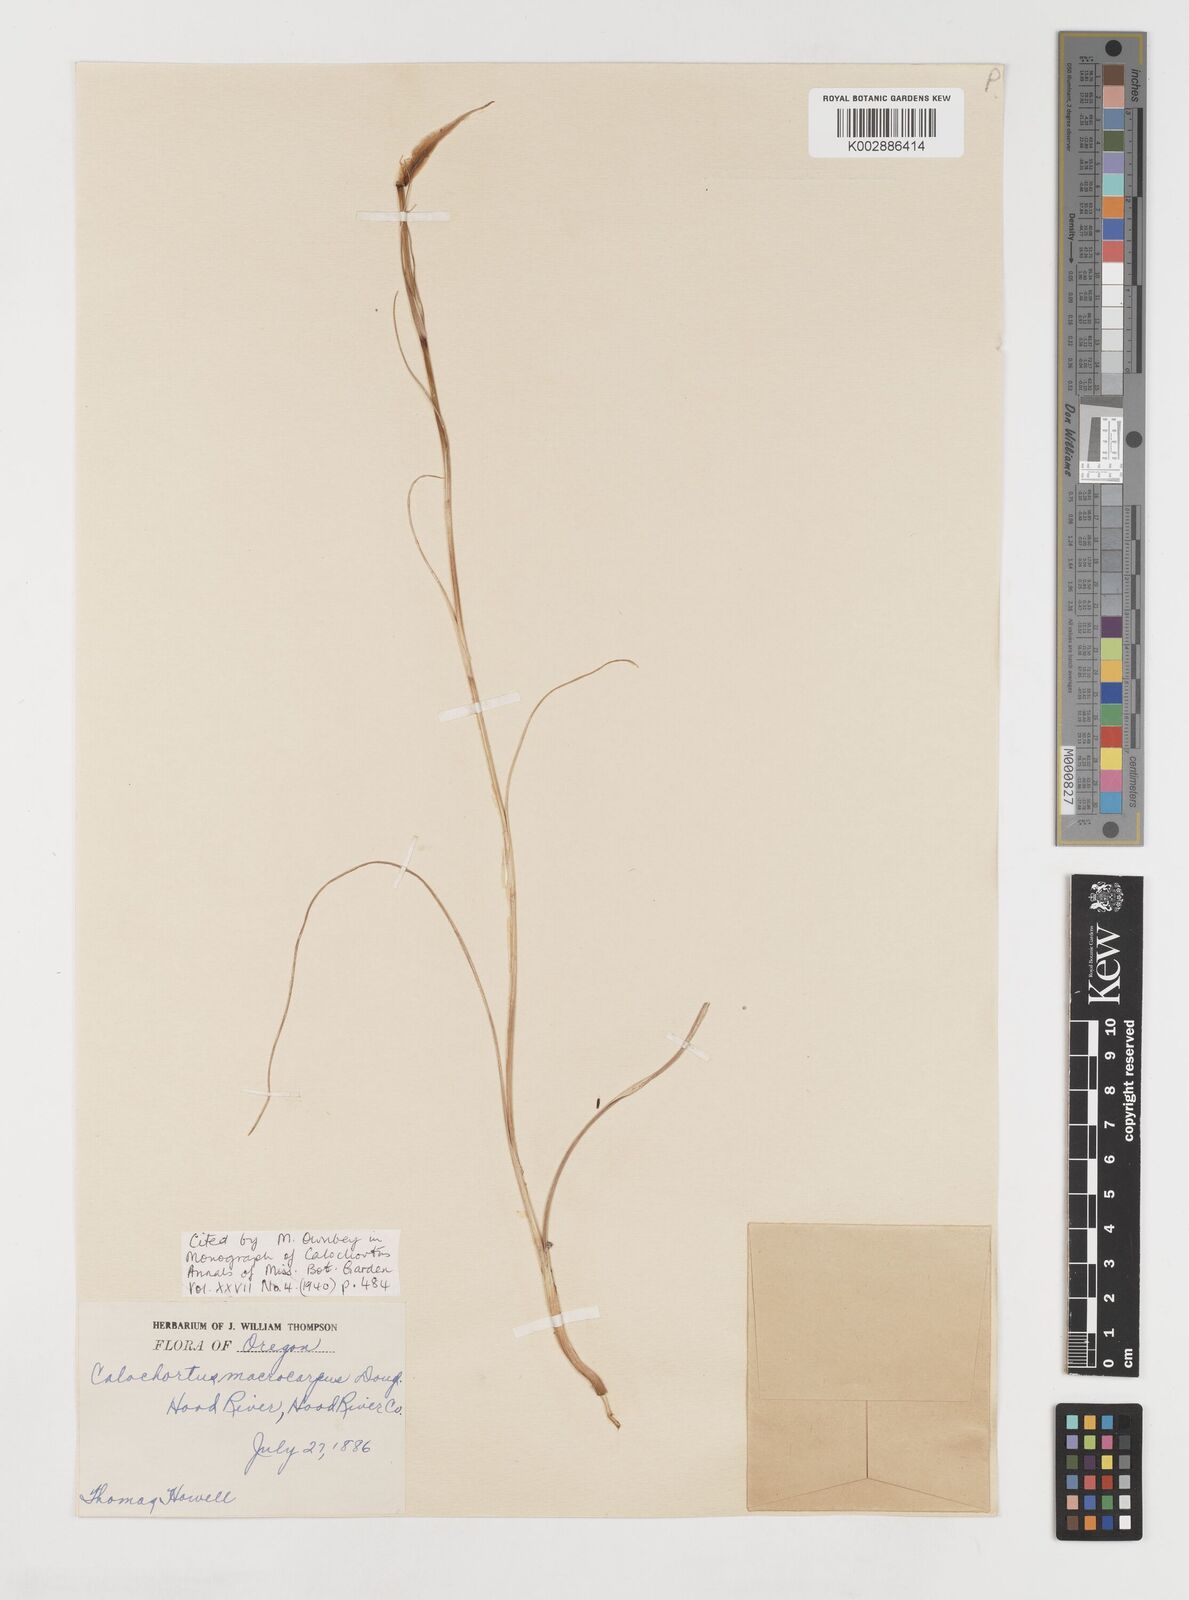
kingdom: Plantae
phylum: Tracheophyta
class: Liliopsida
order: Liliales
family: Liliaceae
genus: Calochortus
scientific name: Calochortus macrocarpus
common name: Green-band mariposa lily
